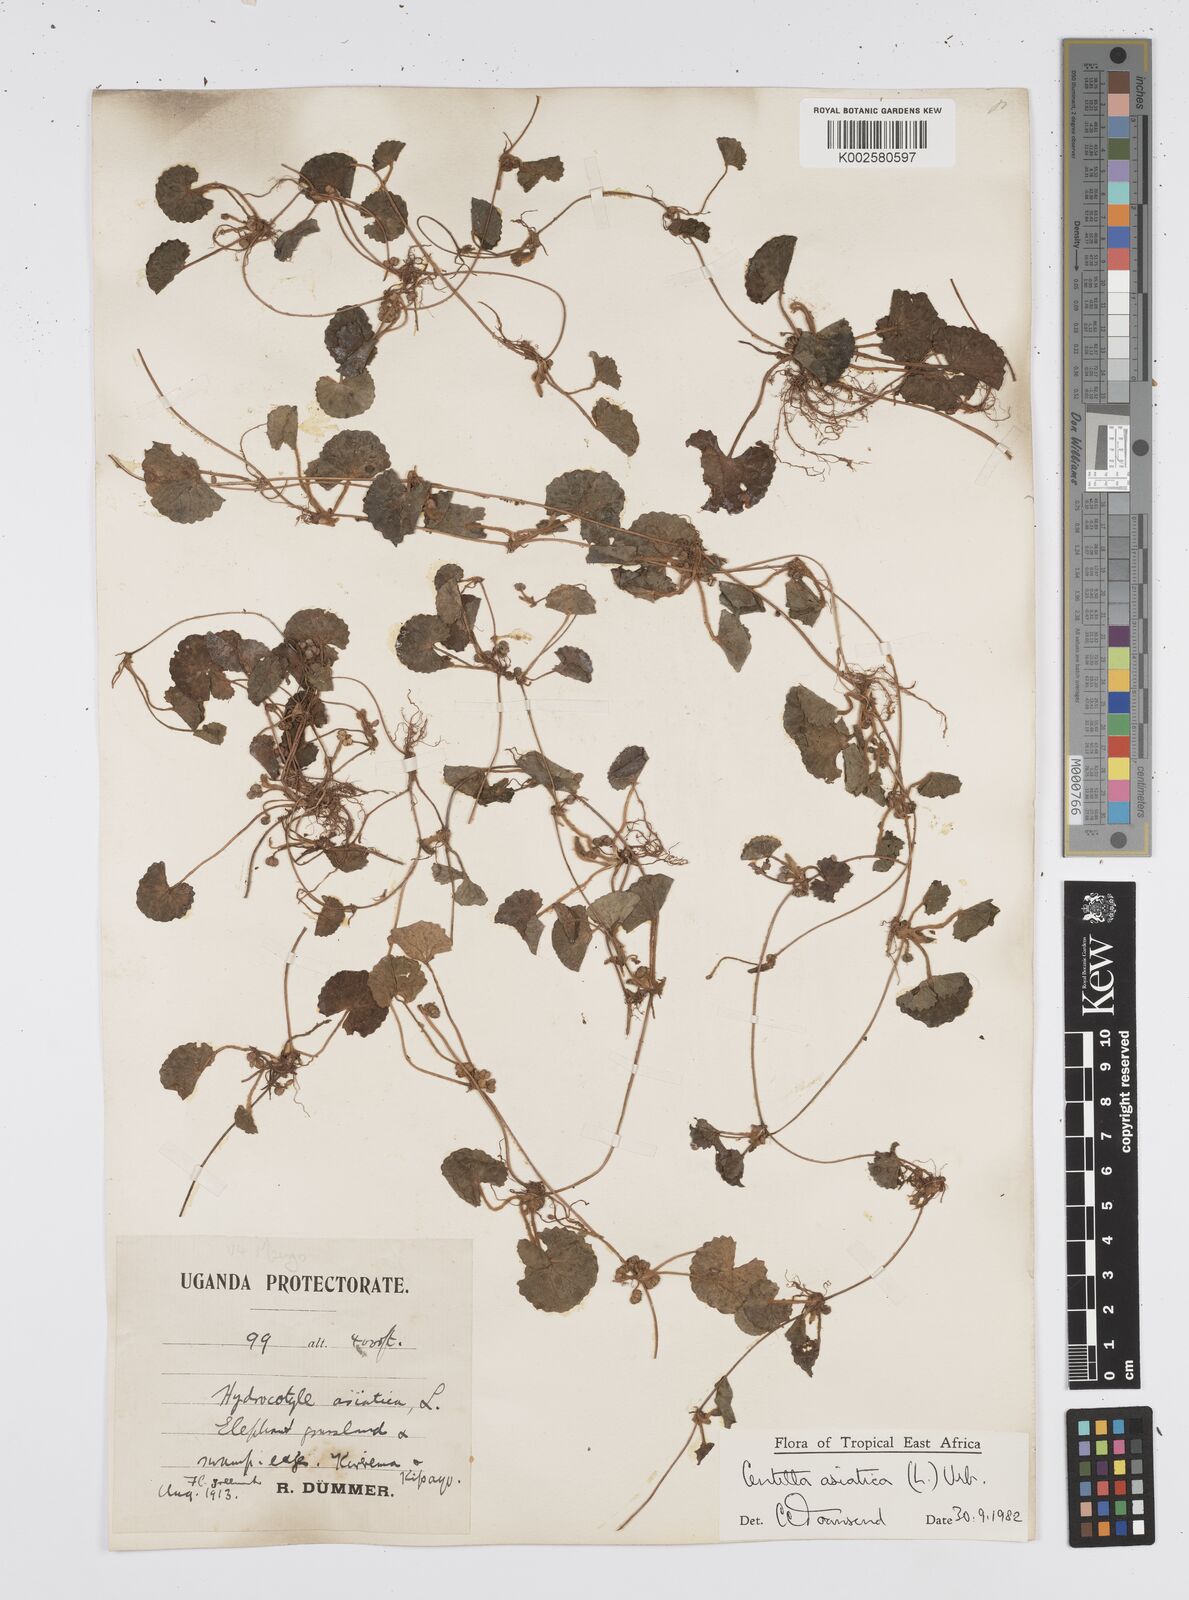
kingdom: Plantae
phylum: Tracheophyta
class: Magnoliopsida
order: Apiales
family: Apiaceae
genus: Centella
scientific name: Centella asiatica
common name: Spadeleaf
